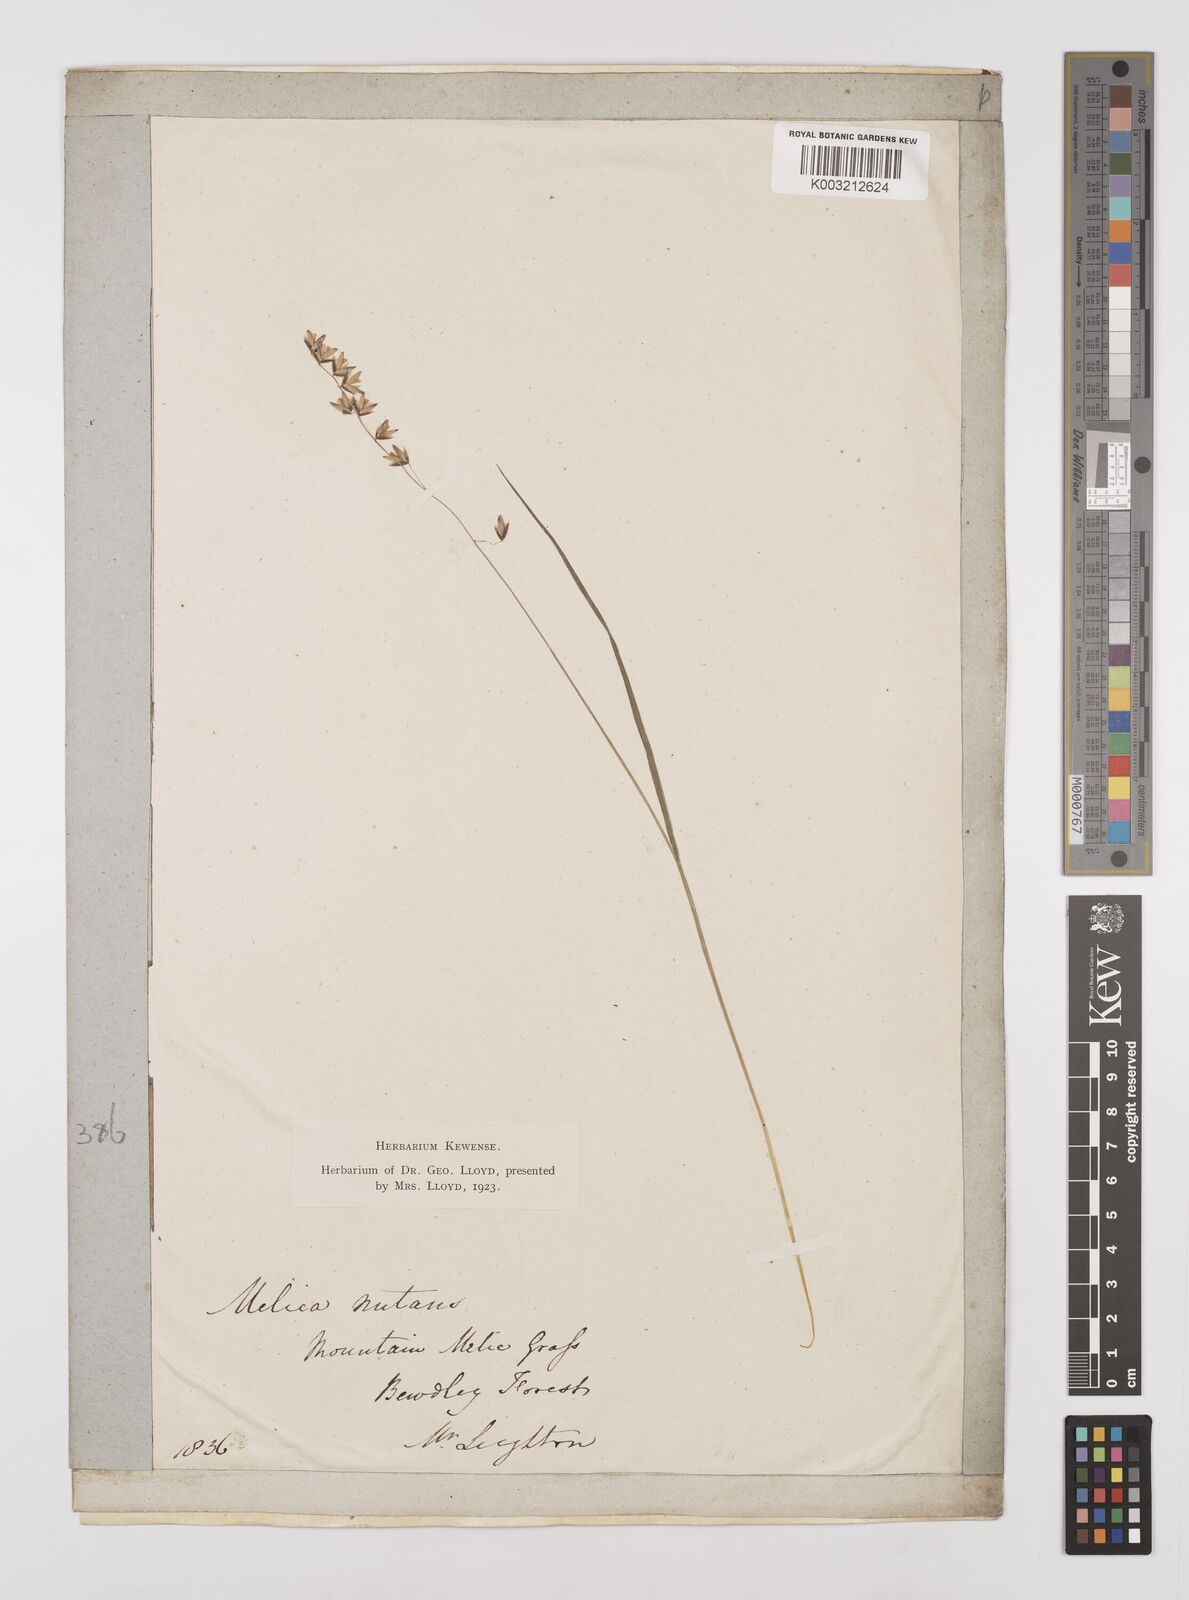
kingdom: Plantae
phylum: Tracheophyta
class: Liliopsida
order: Poales
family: Poaceae
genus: Melica
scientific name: Melica
